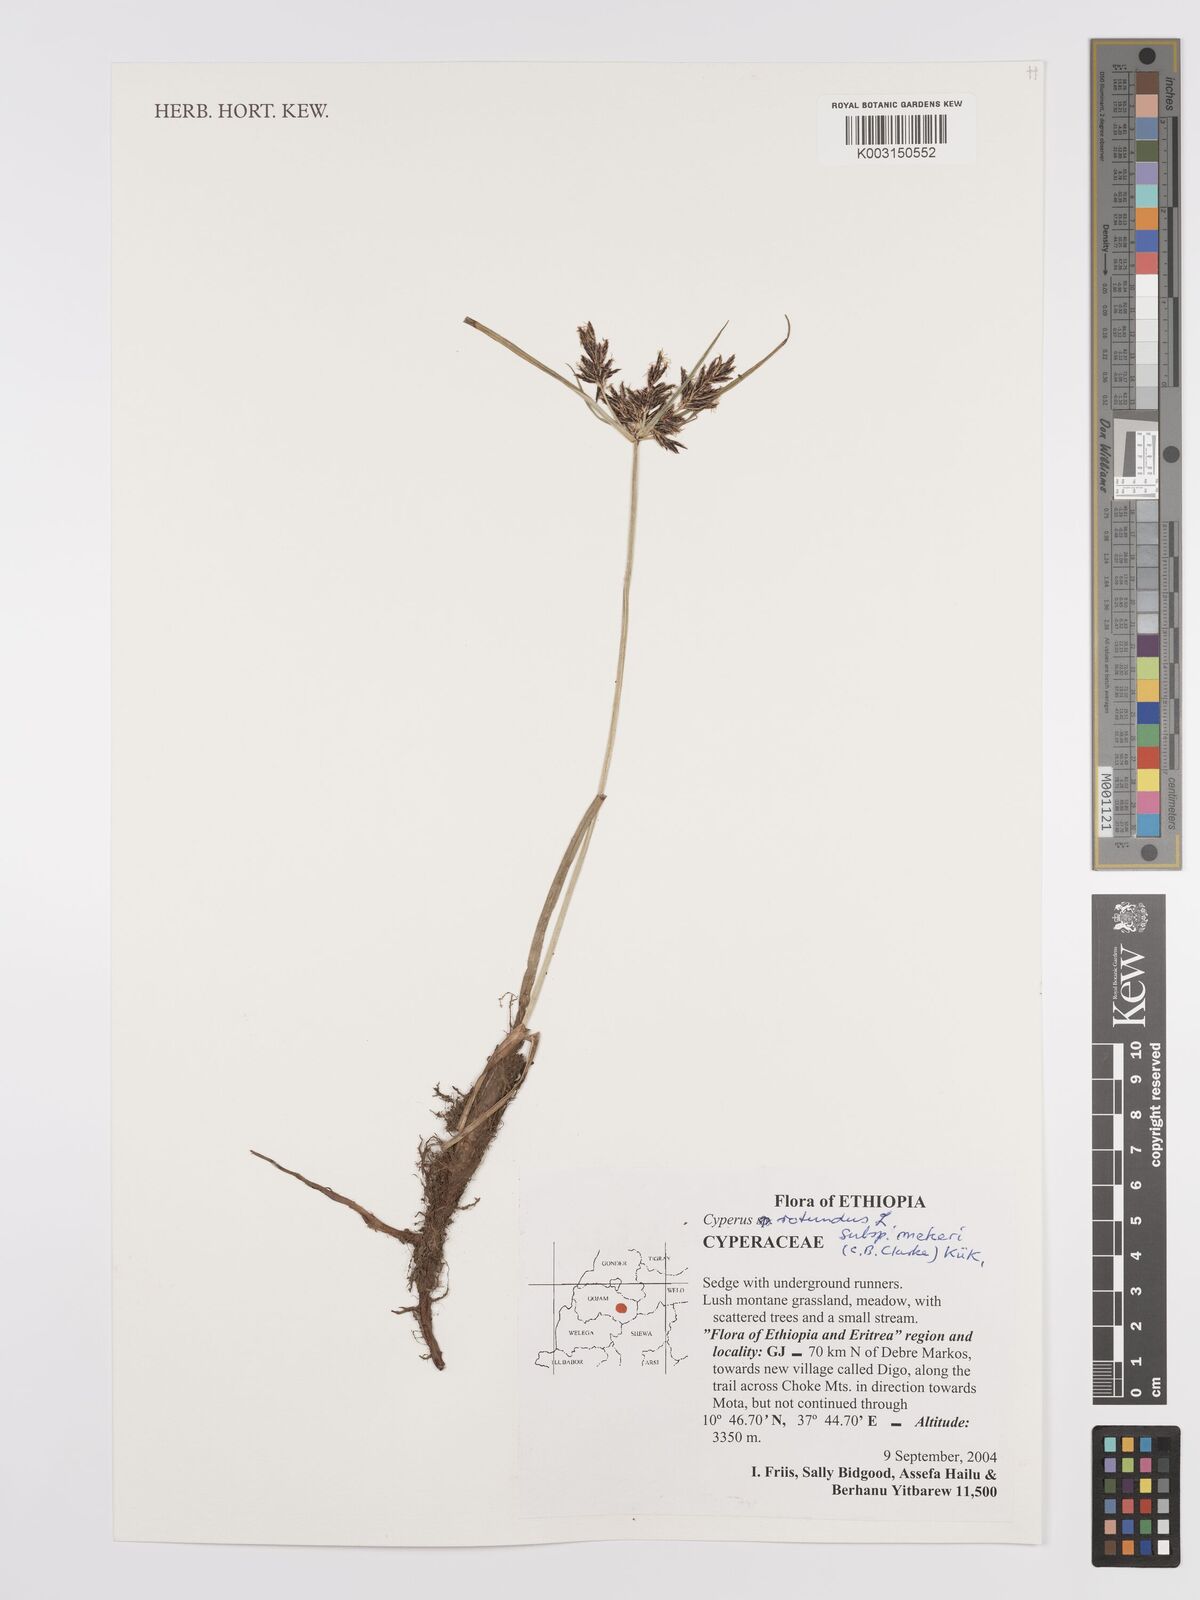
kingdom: Plantae
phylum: Tracheophyta
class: Liliopsida
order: Poales
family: Cyperaceae
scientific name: Cyperaceae
